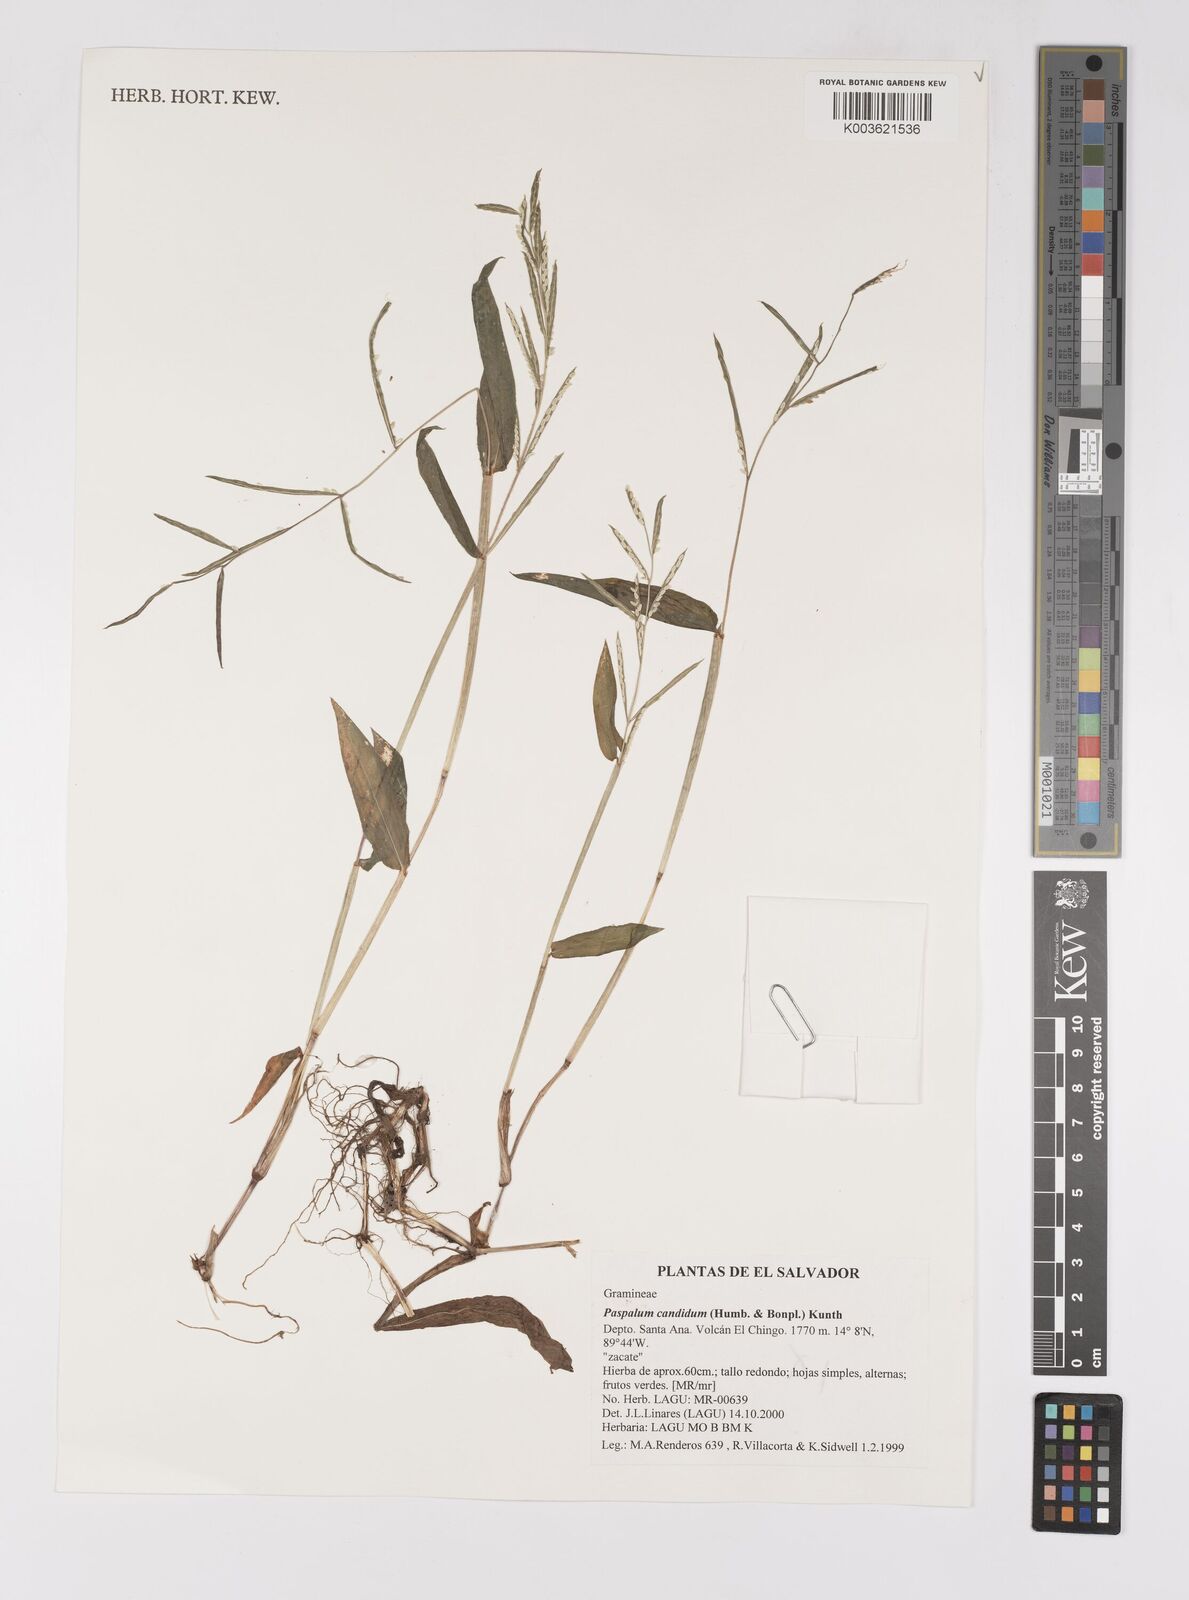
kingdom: Plantae
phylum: Tracheophyta
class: Liliopsida
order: Poales
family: Poaceae
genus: Paspalum
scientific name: Paspalum candidum
